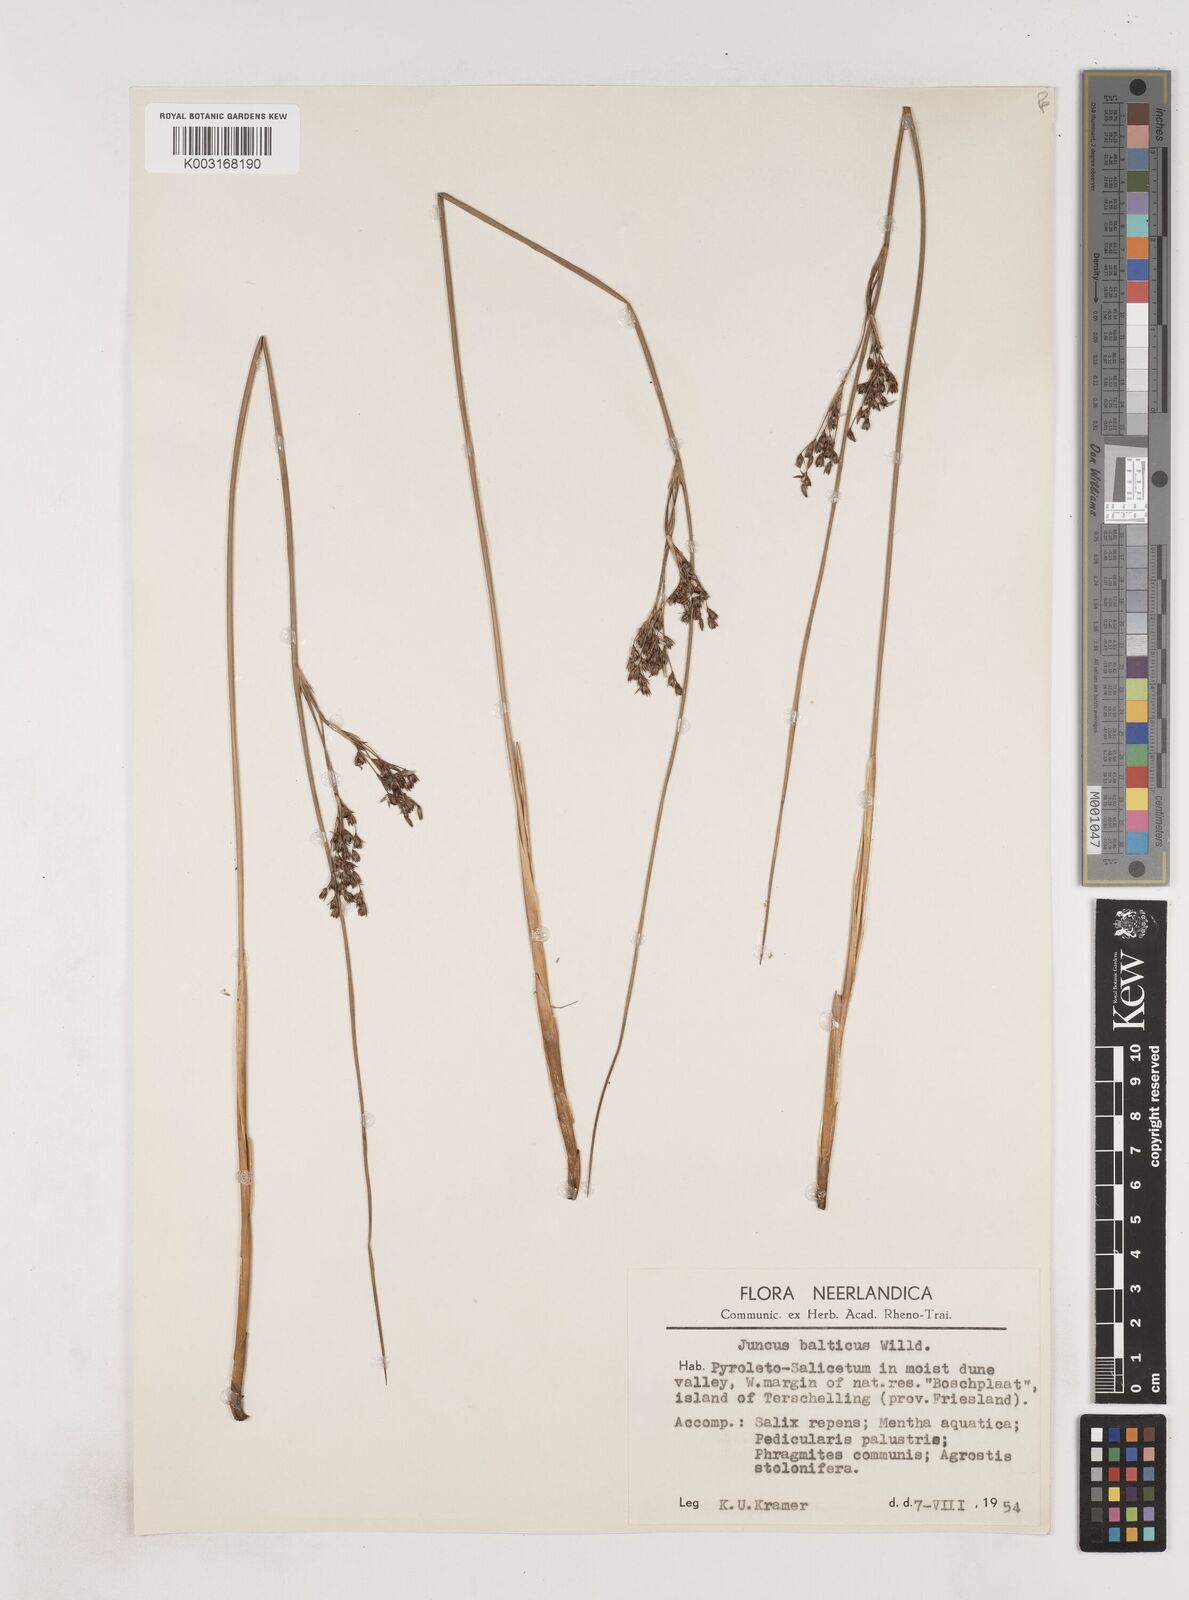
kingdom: Plantae
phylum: Tracheophyta
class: Liliopsida
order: Poales
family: Juncaceae
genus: Juncus
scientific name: Juncus balticus
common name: Baltic rush
